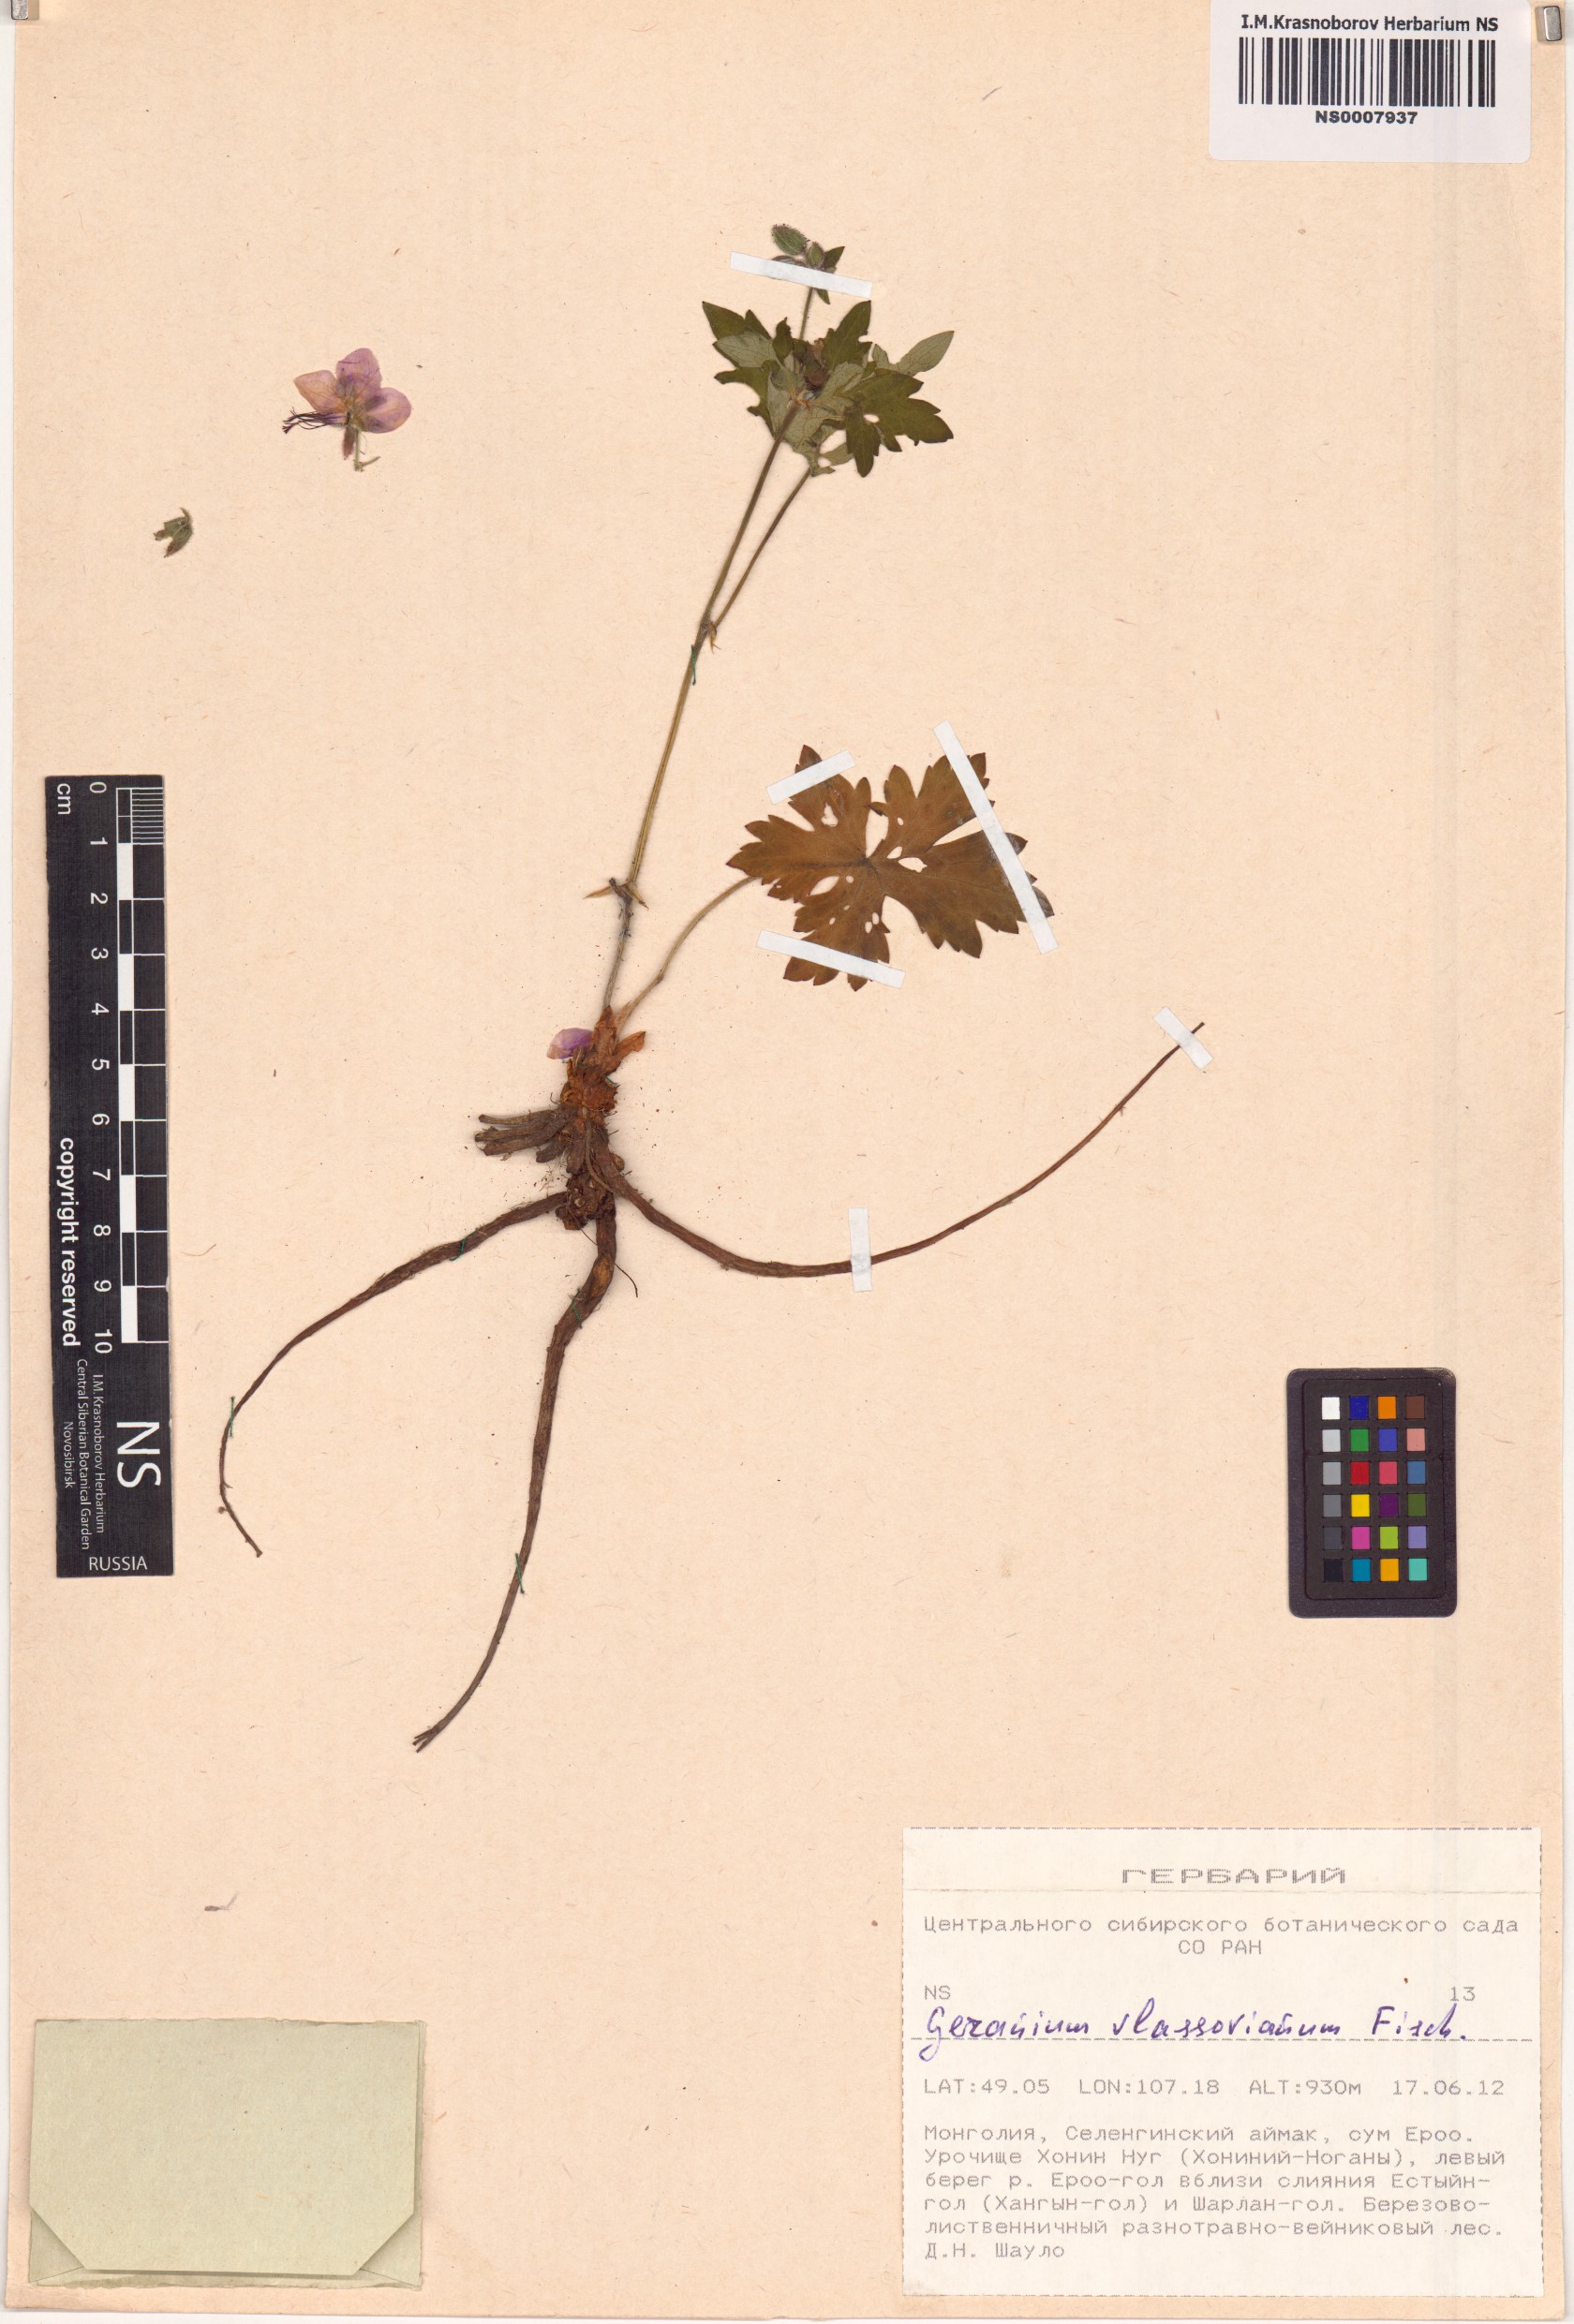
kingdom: Plantae
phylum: Tracheophyta
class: Magnoliopsida
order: Geraniales
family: Geraniaceae
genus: Geranium
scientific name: Geranium wlassovianum
